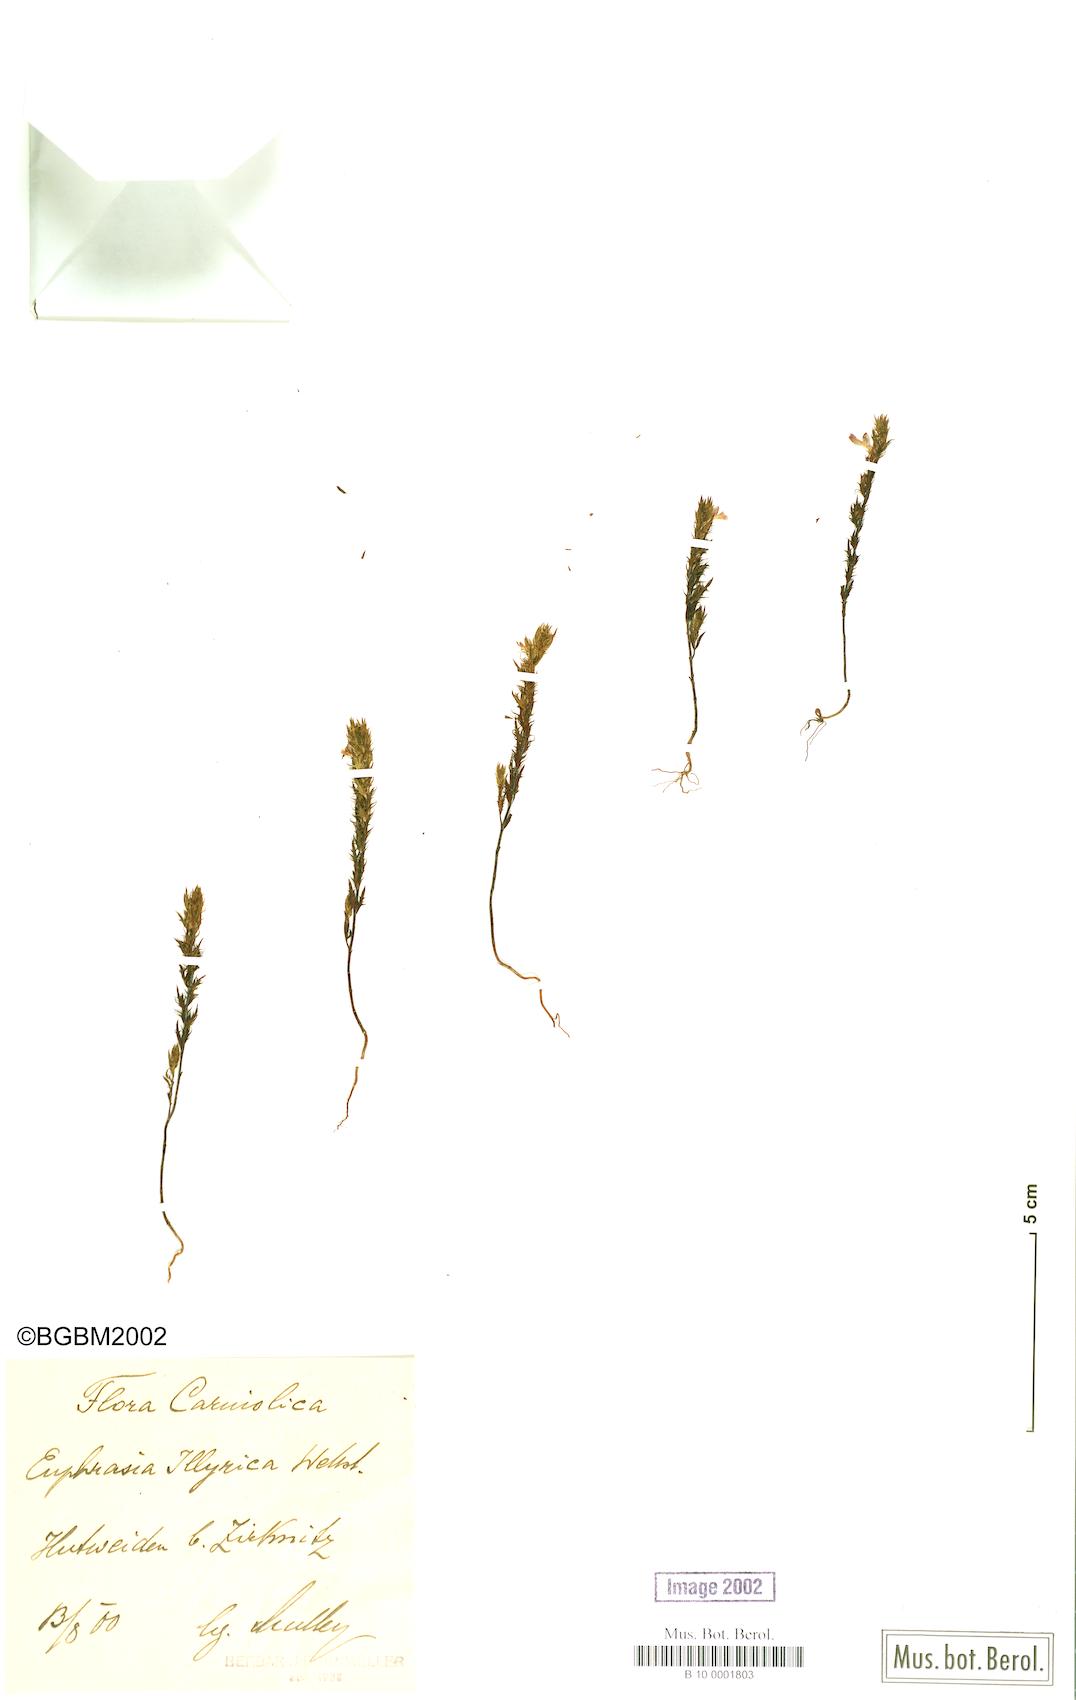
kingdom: Plantae
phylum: Tracheophyta
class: Magnoliopsida
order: Lamiales
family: Orobanchaceae
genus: Euphrasia
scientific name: Euphrasia illyrica
